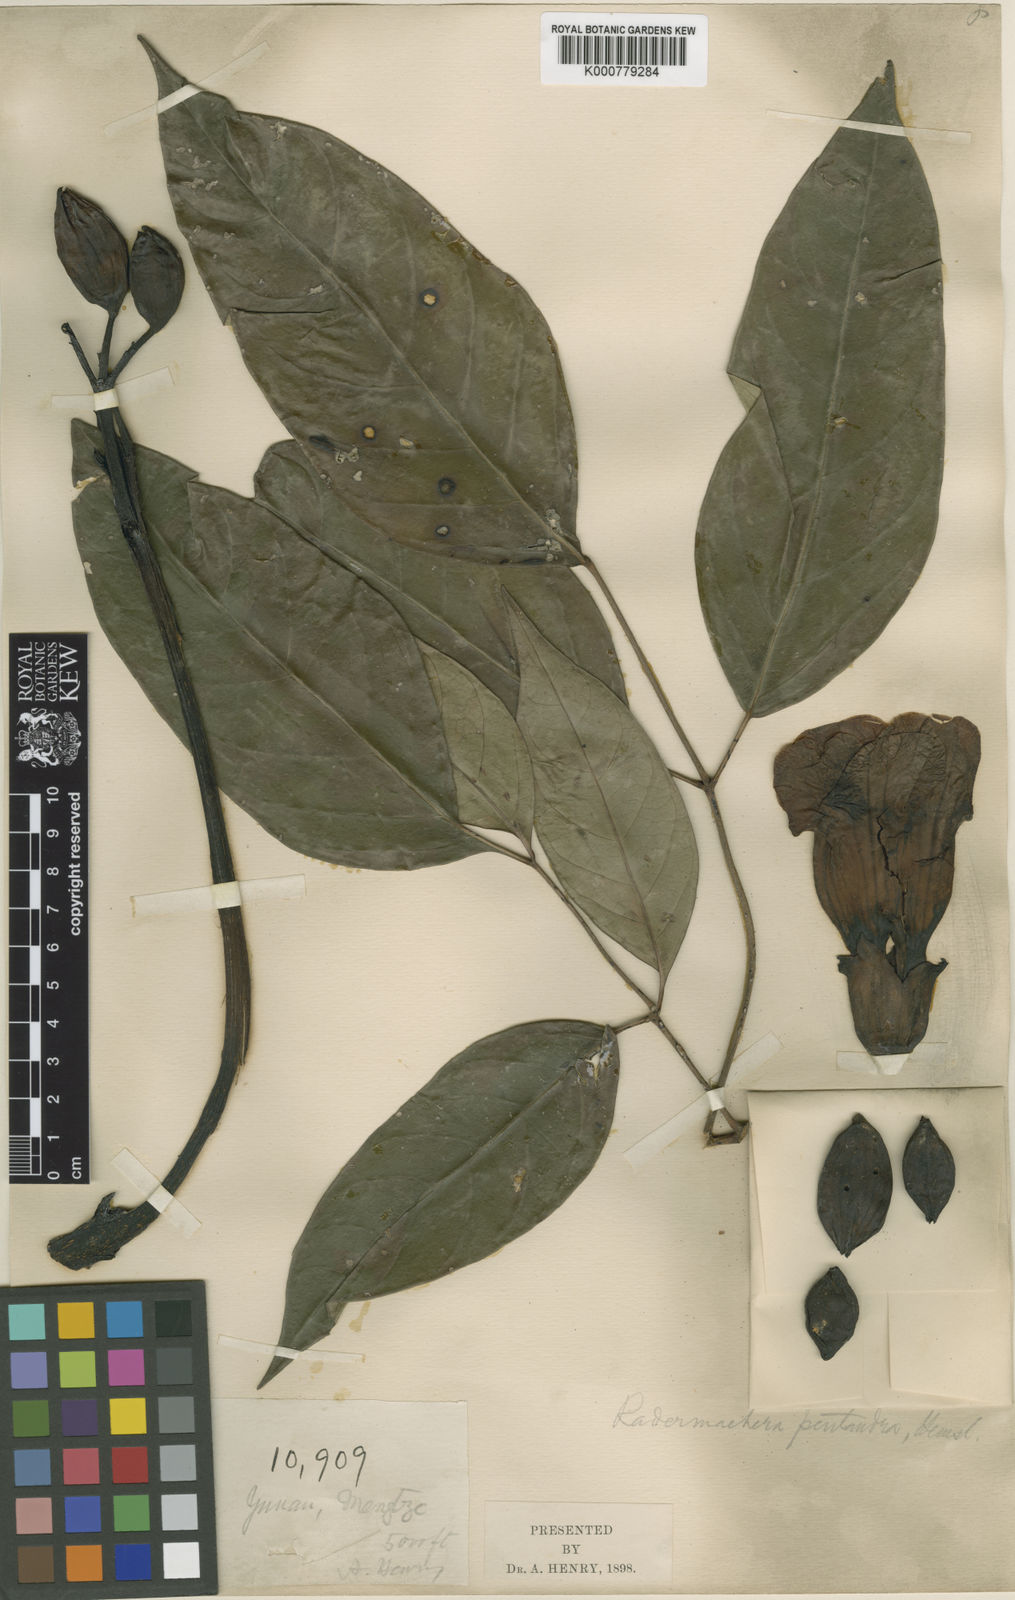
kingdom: Plantae
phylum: Tracheophyta
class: Magnoliopsida
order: Lamiales
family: Bignoniaceae
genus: Radermachera
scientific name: Radermachera pentandra
